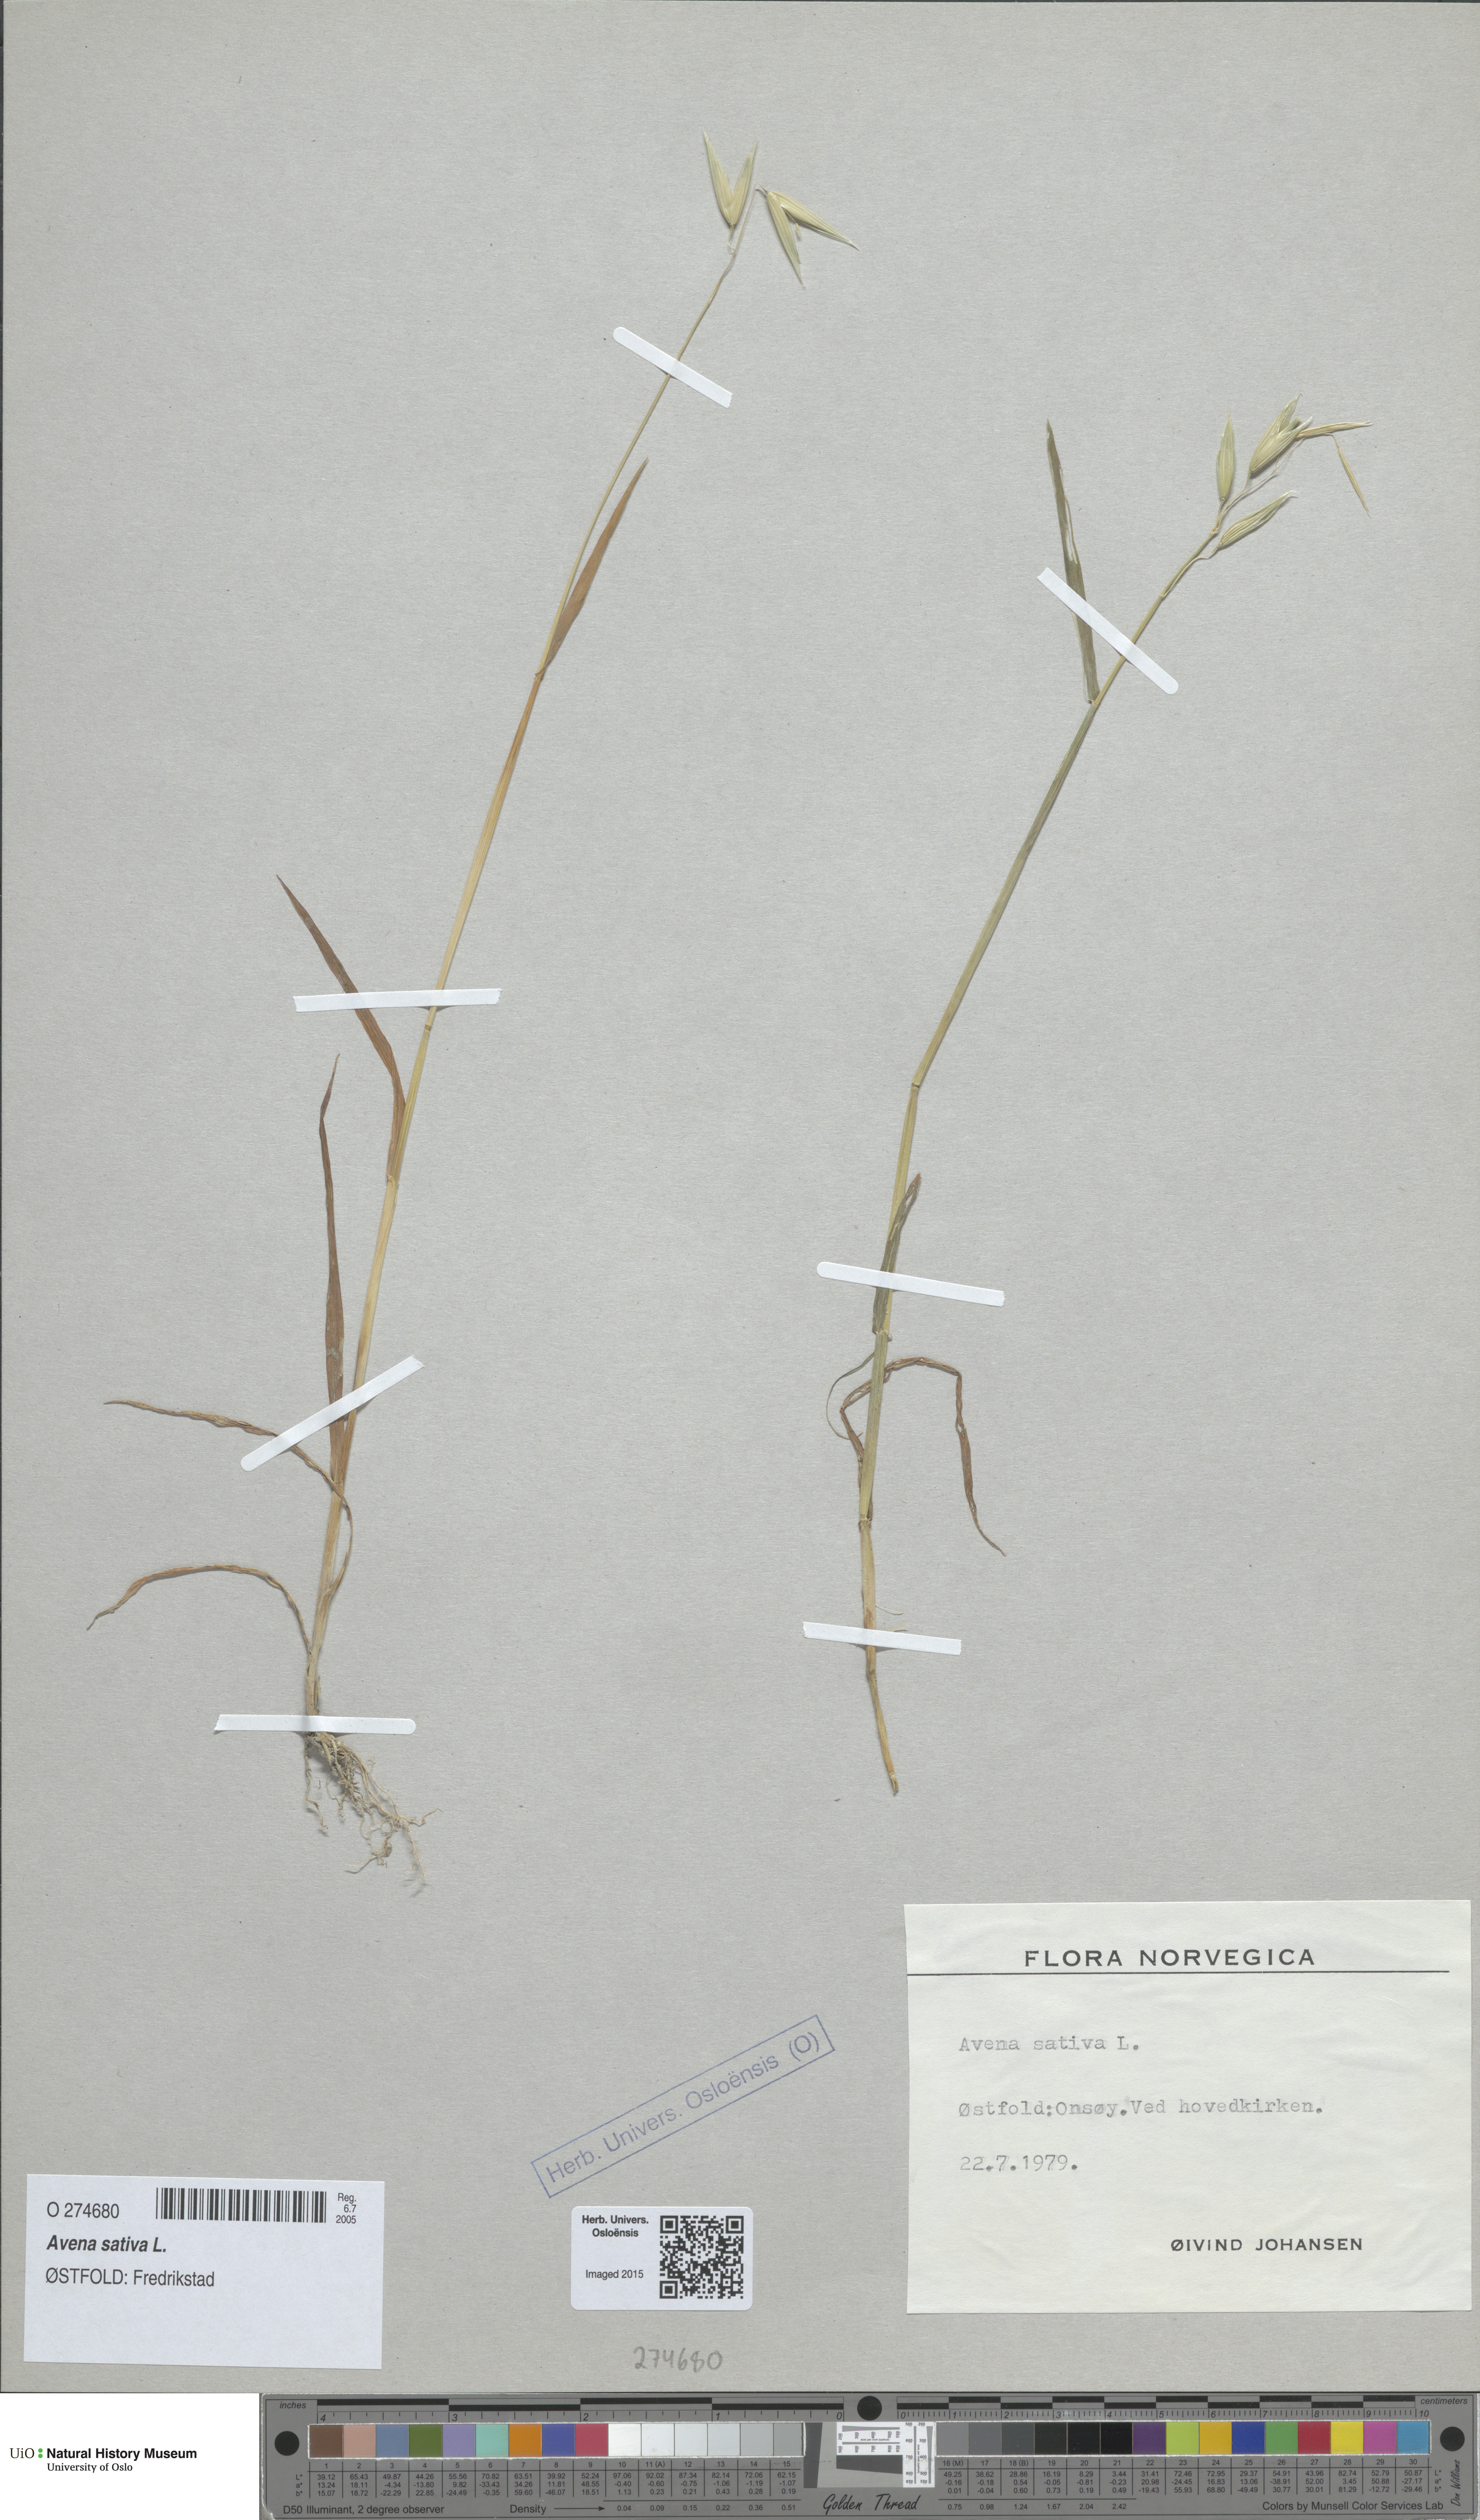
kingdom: Plantae
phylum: Tracheophyta
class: Liliopsida
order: Poales
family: Poaceae
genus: Avena
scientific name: Avena sativa
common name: Oat
